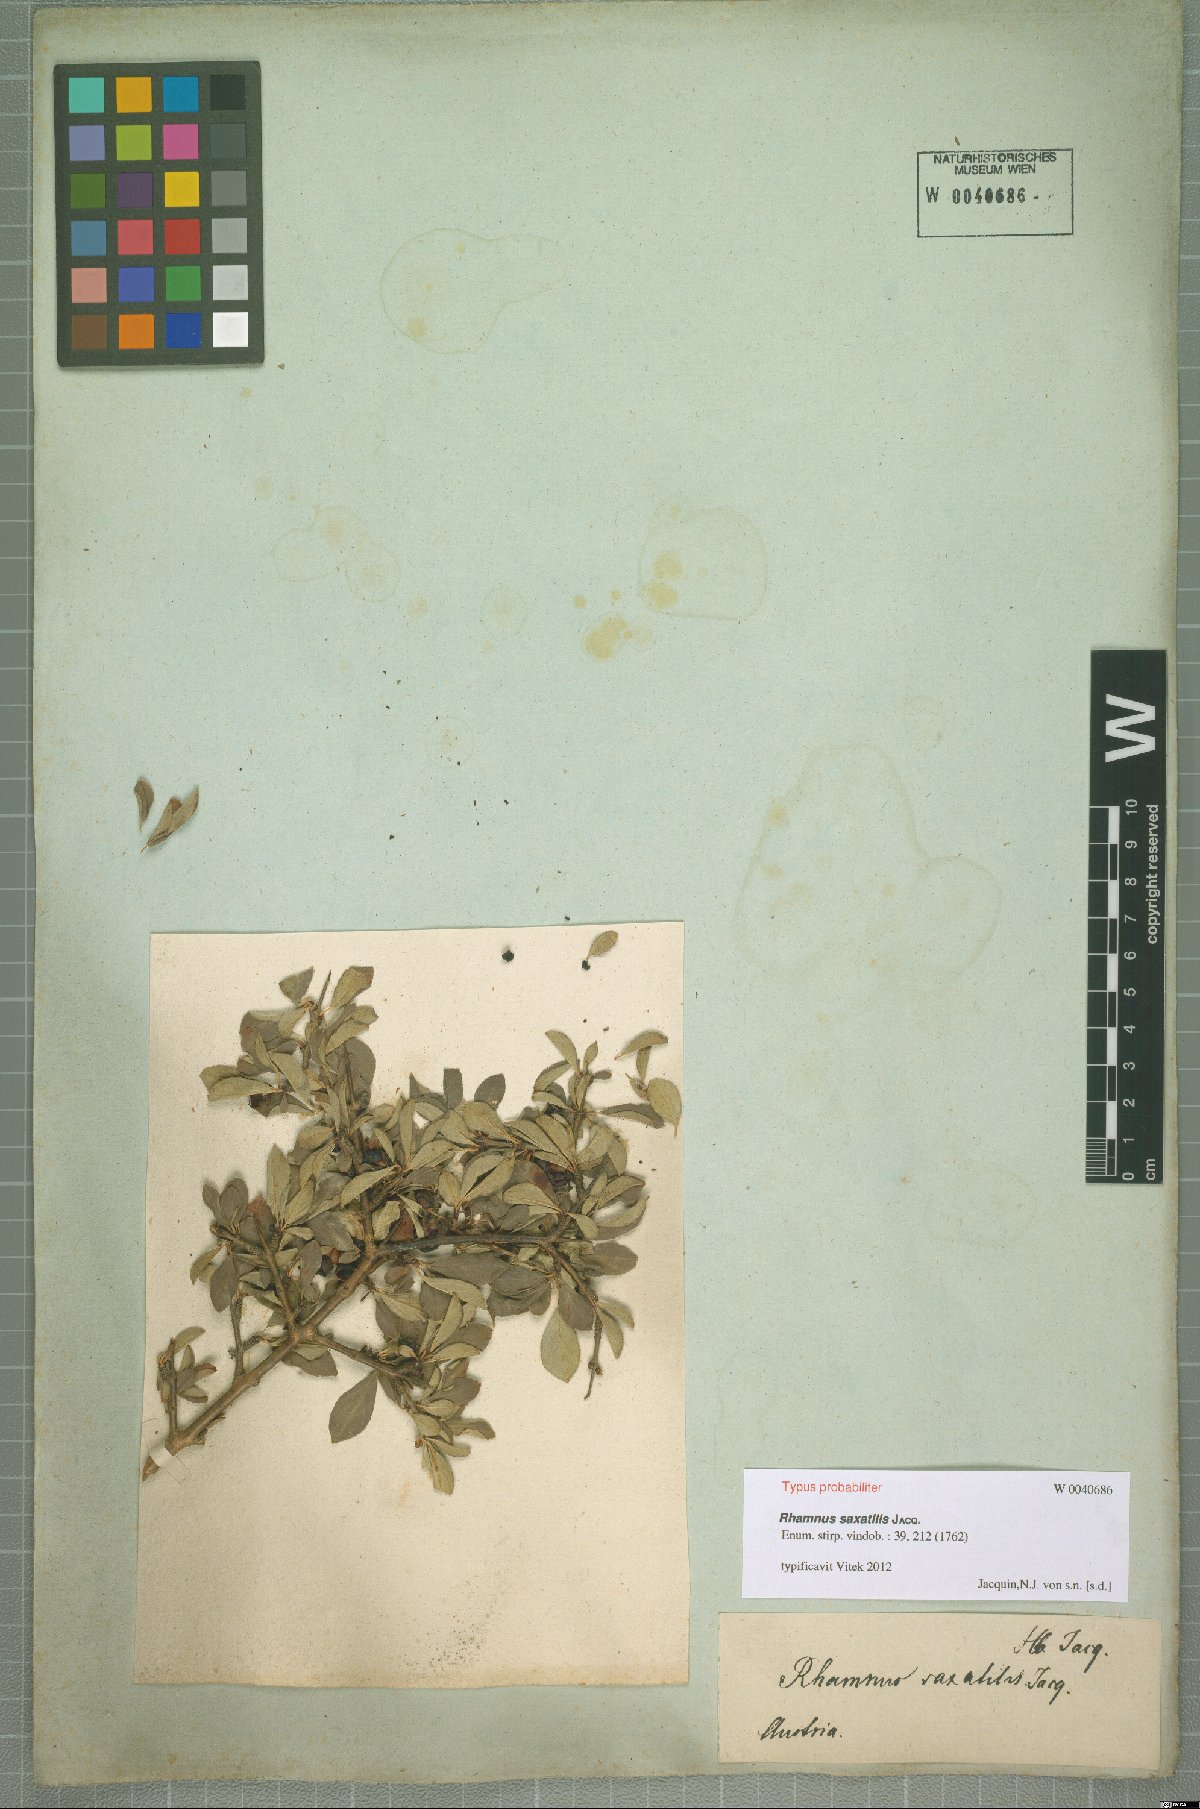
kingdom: Plantae
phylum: Tracheophyta
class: Magnoliopsida
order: Rosales
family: Rhamnaceae
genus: Rhamnus
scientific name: Rhamnus saxatilis
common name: Rock buckthorn
